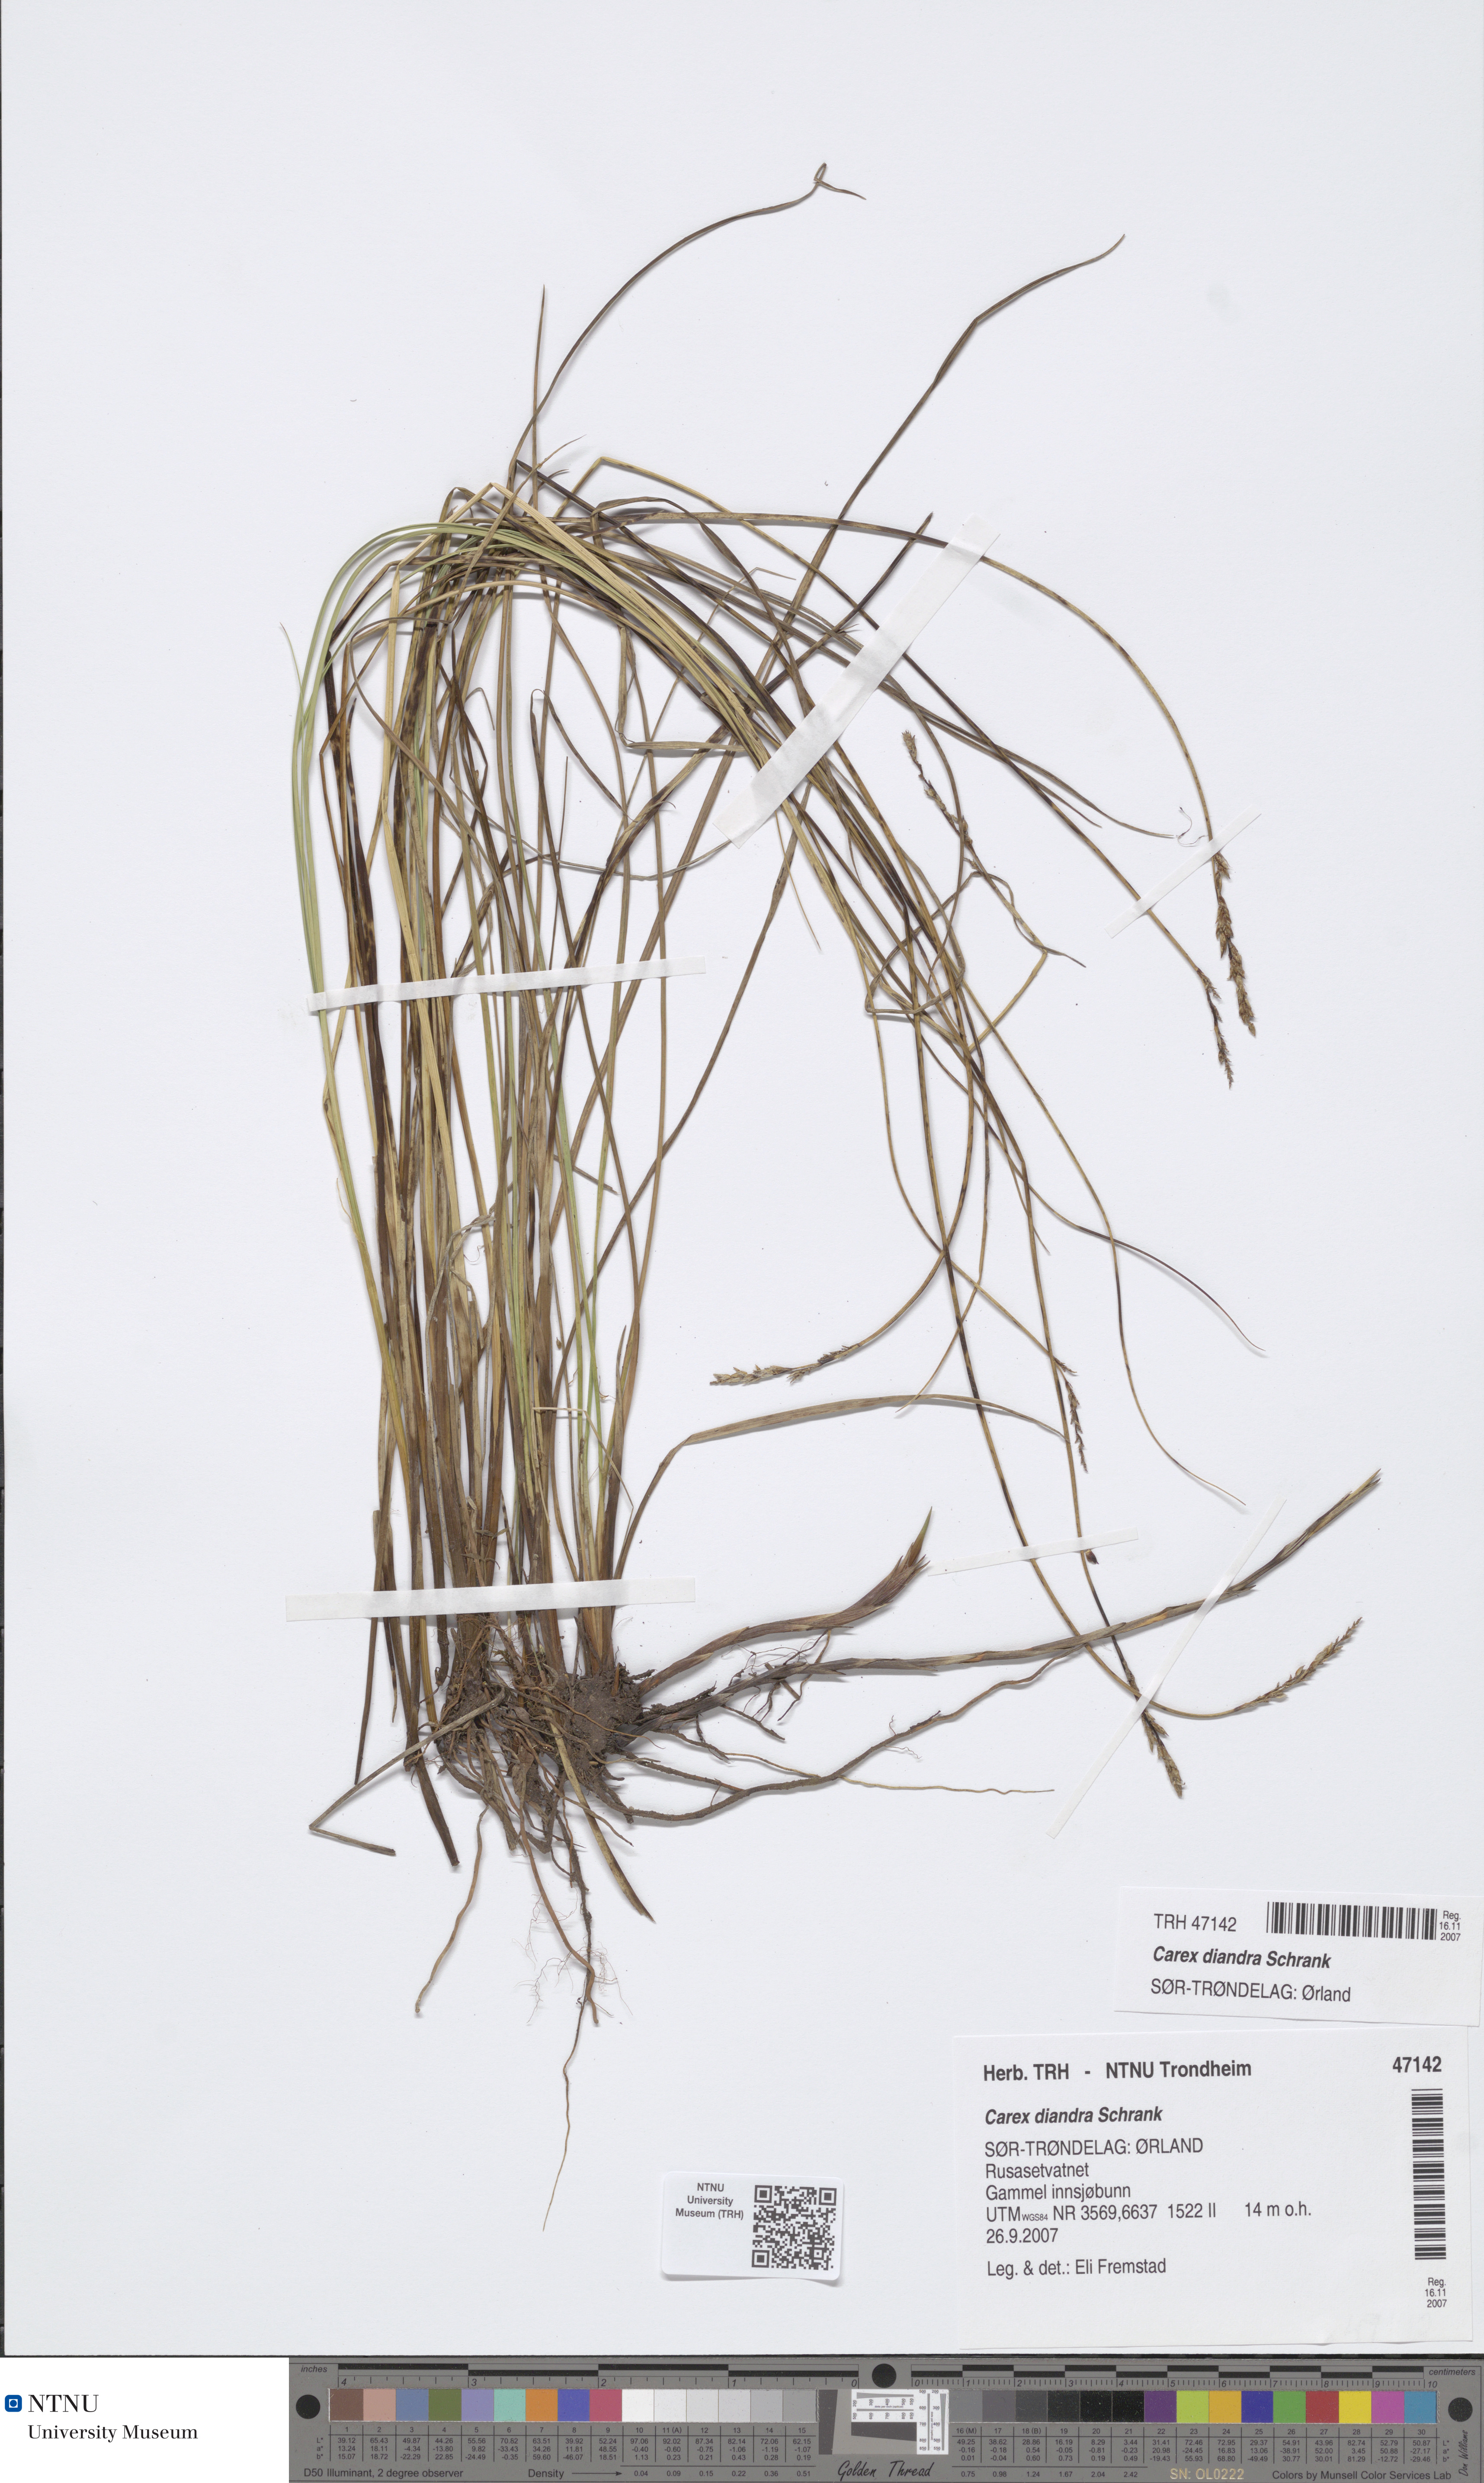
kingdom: Plantae
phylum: Tracheophyta
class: Liliopsida
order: Poales
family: Cyperaceae
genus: Carex
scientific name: Carex diandra
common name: Lesser tussock-sedge
